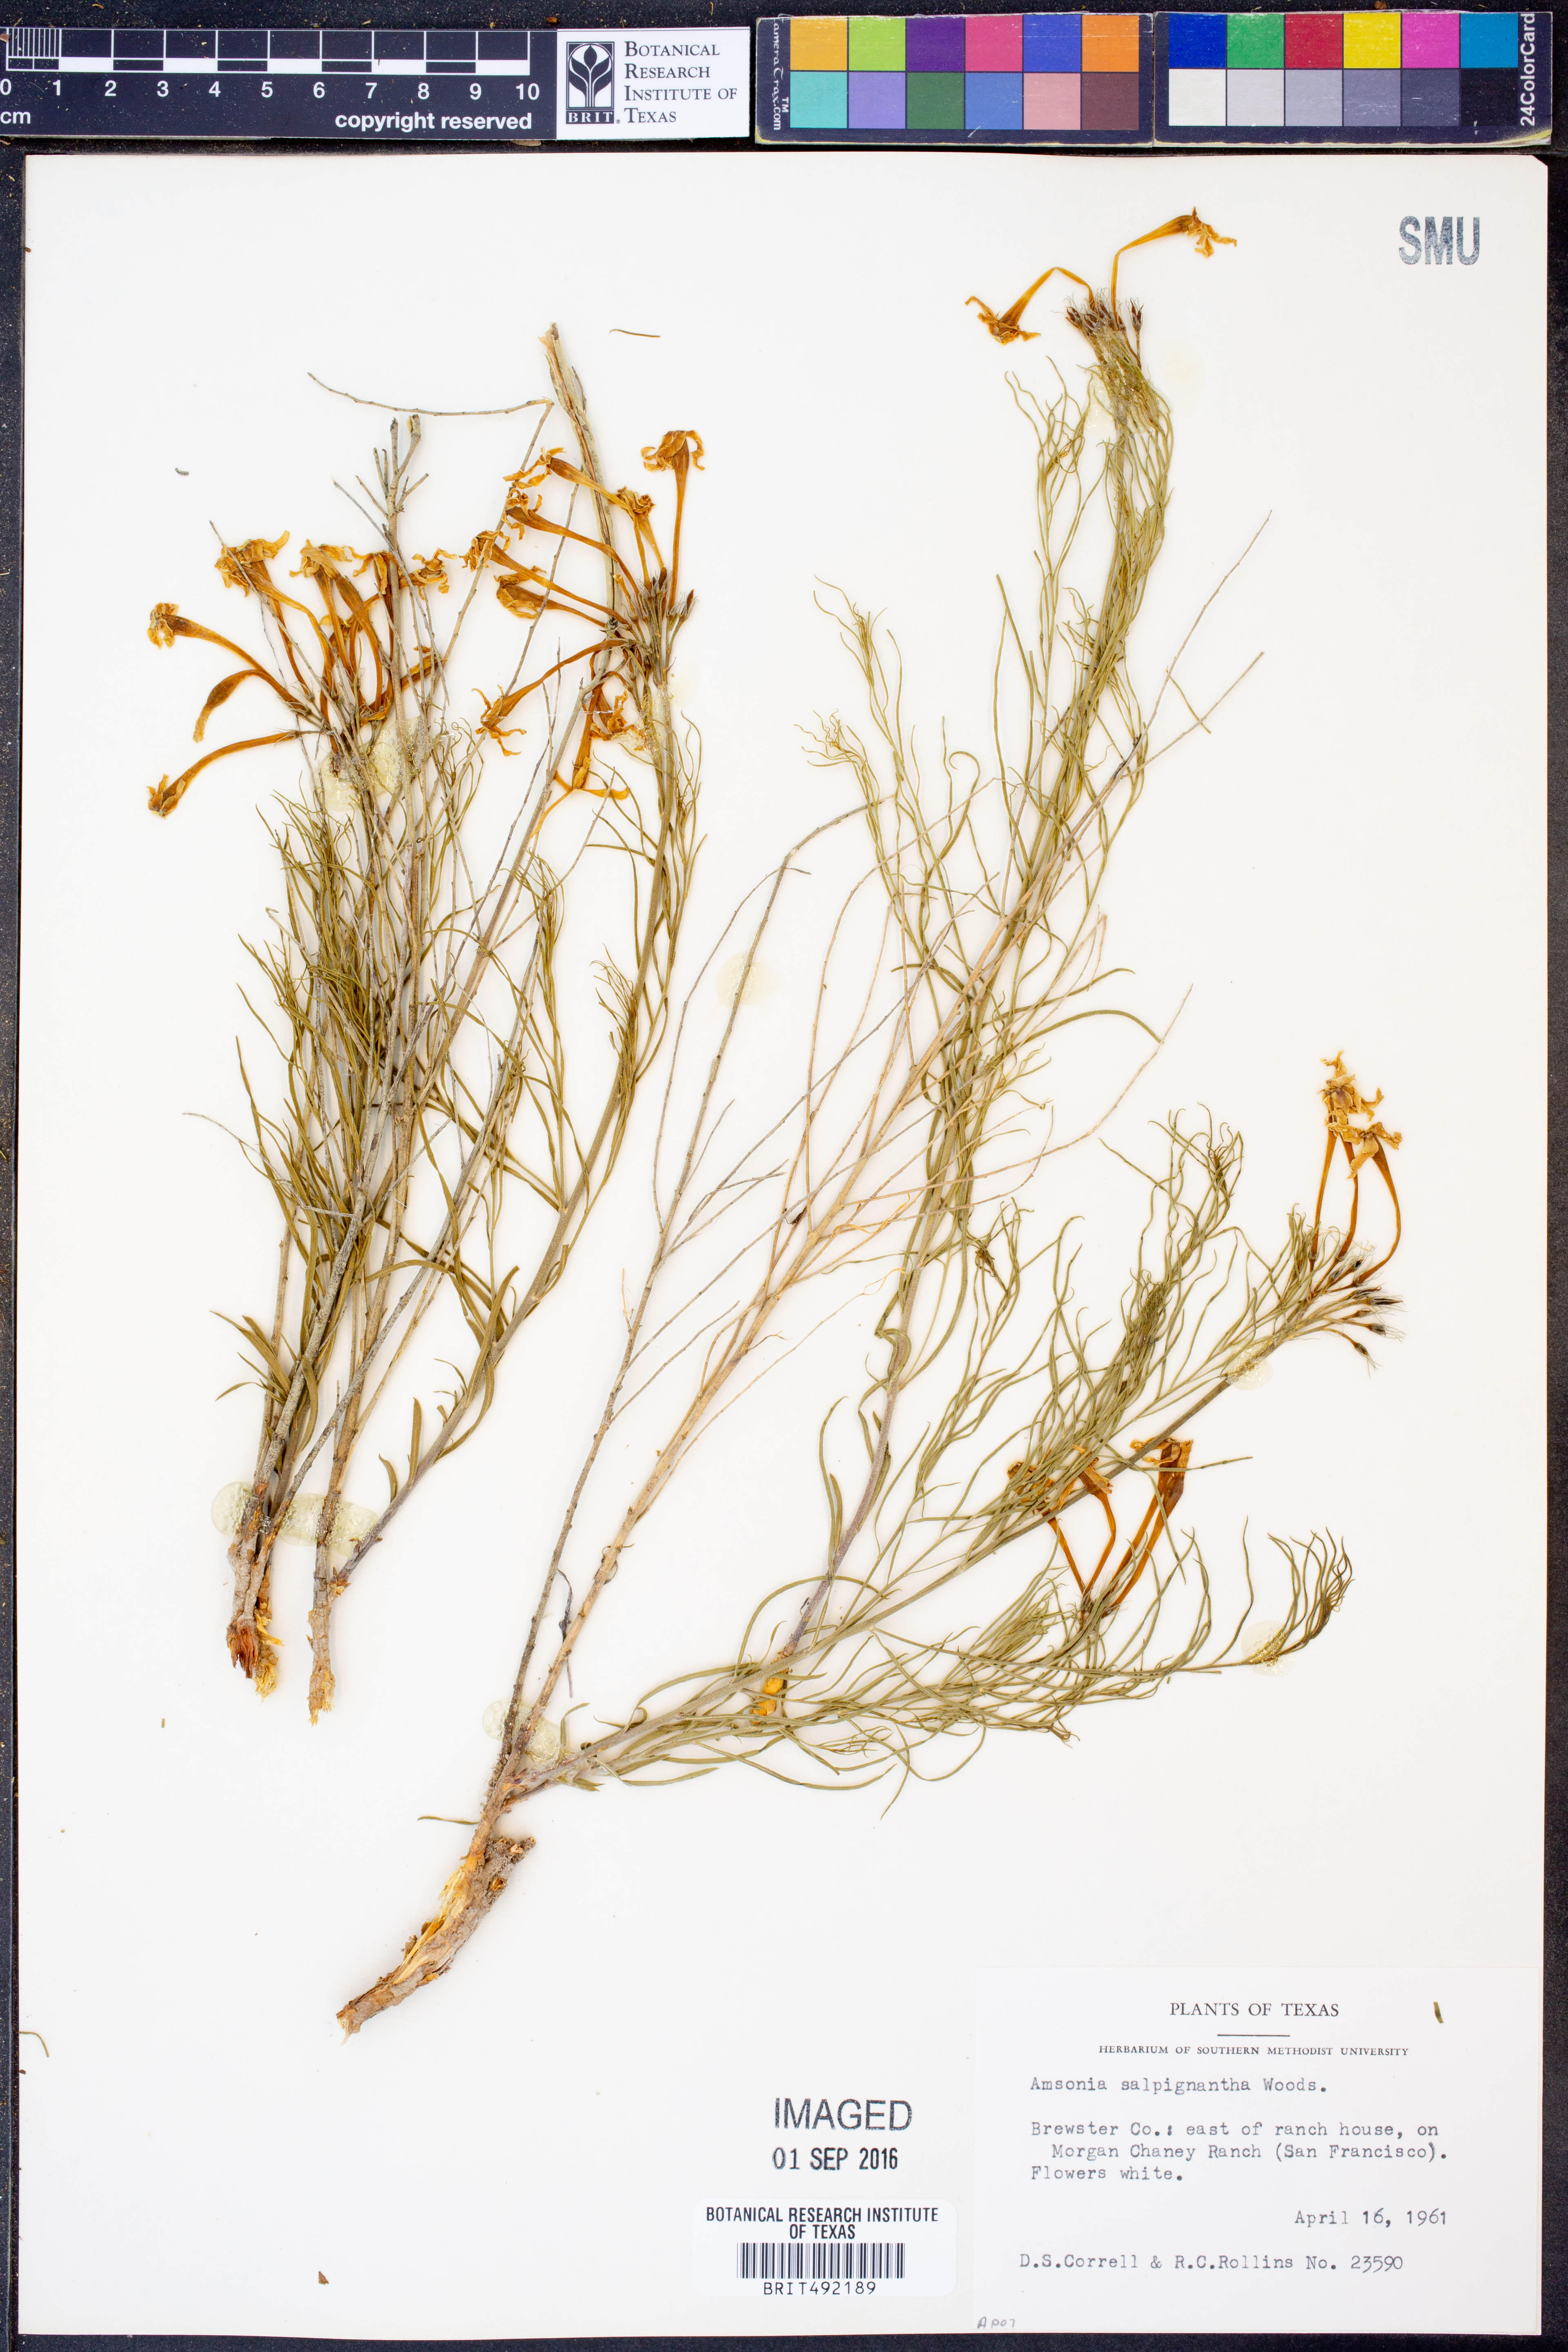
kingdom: Plantae
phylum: Tracheophyta
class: Magnoliopsida
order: Gentianales
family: Apocynaceae
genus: Amsonia
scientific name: Amsonia longiflora
